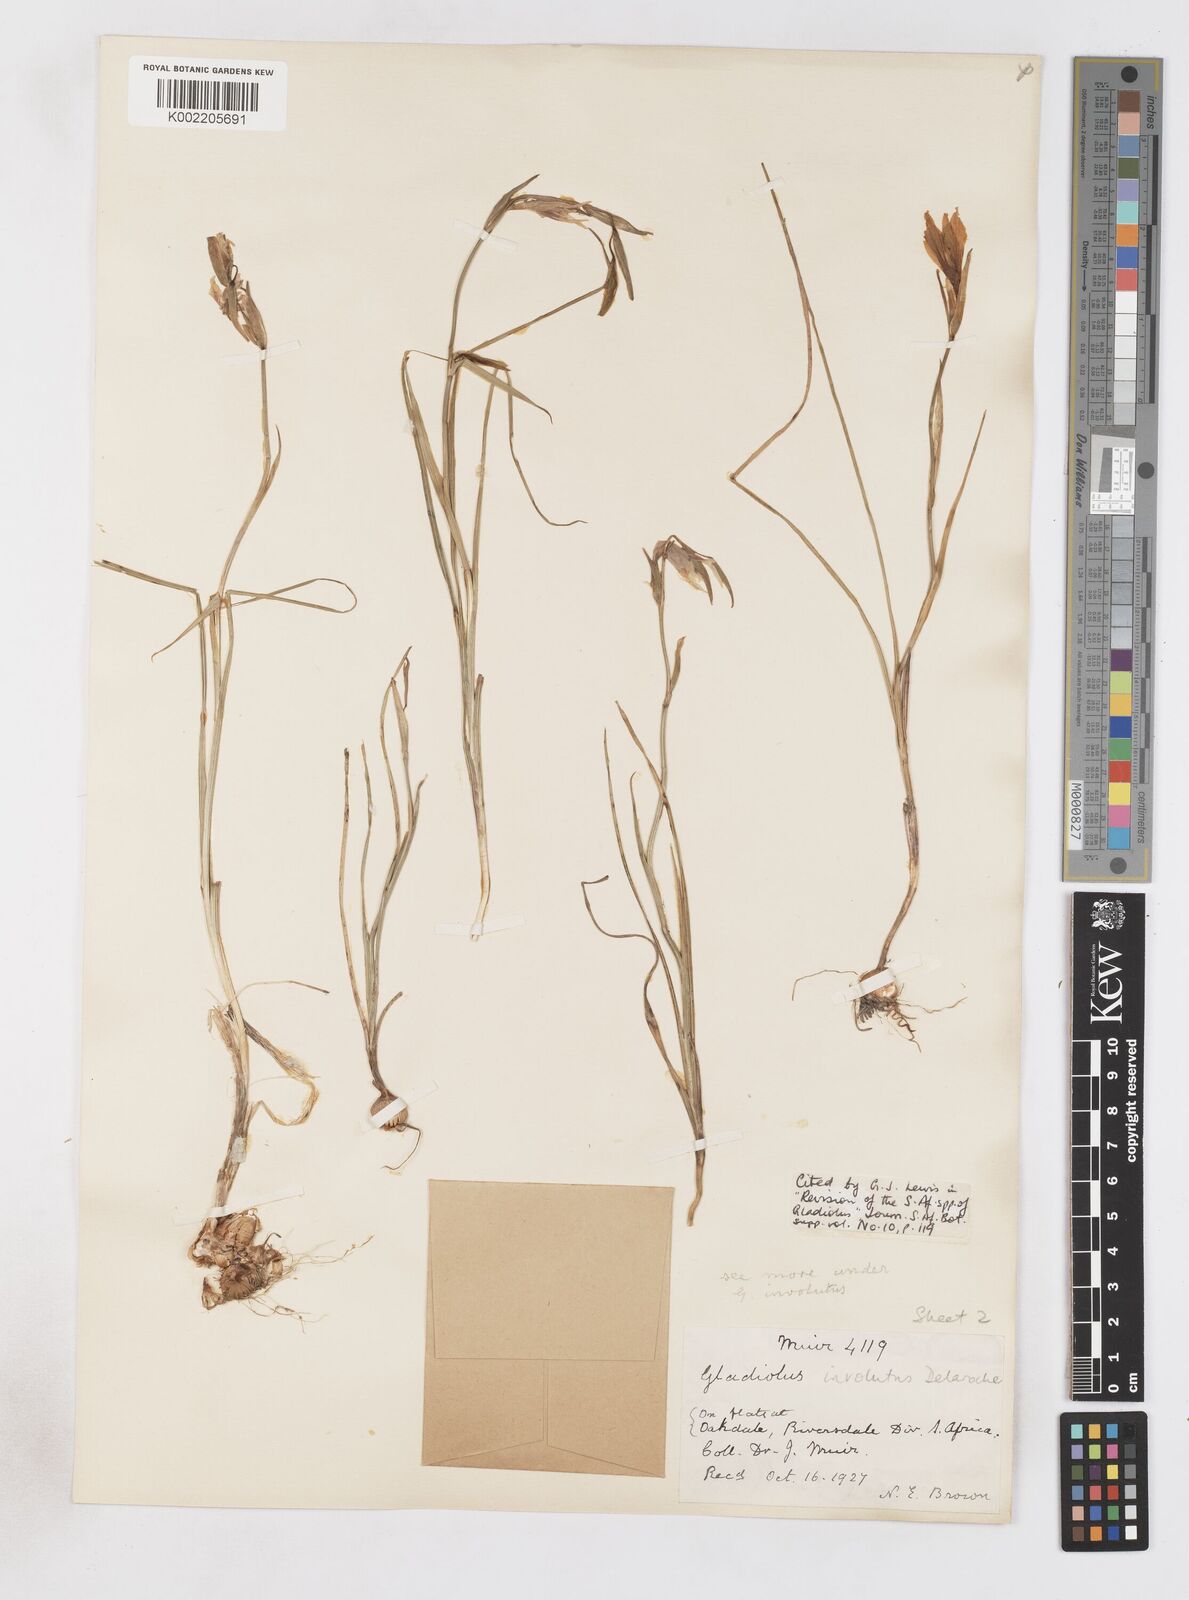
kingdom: Plantae
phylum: Tracheophyta
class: Liliopsida
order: Asparagales
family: Iridaceae
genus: Gladiolus
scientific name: Gladiolus involutus
